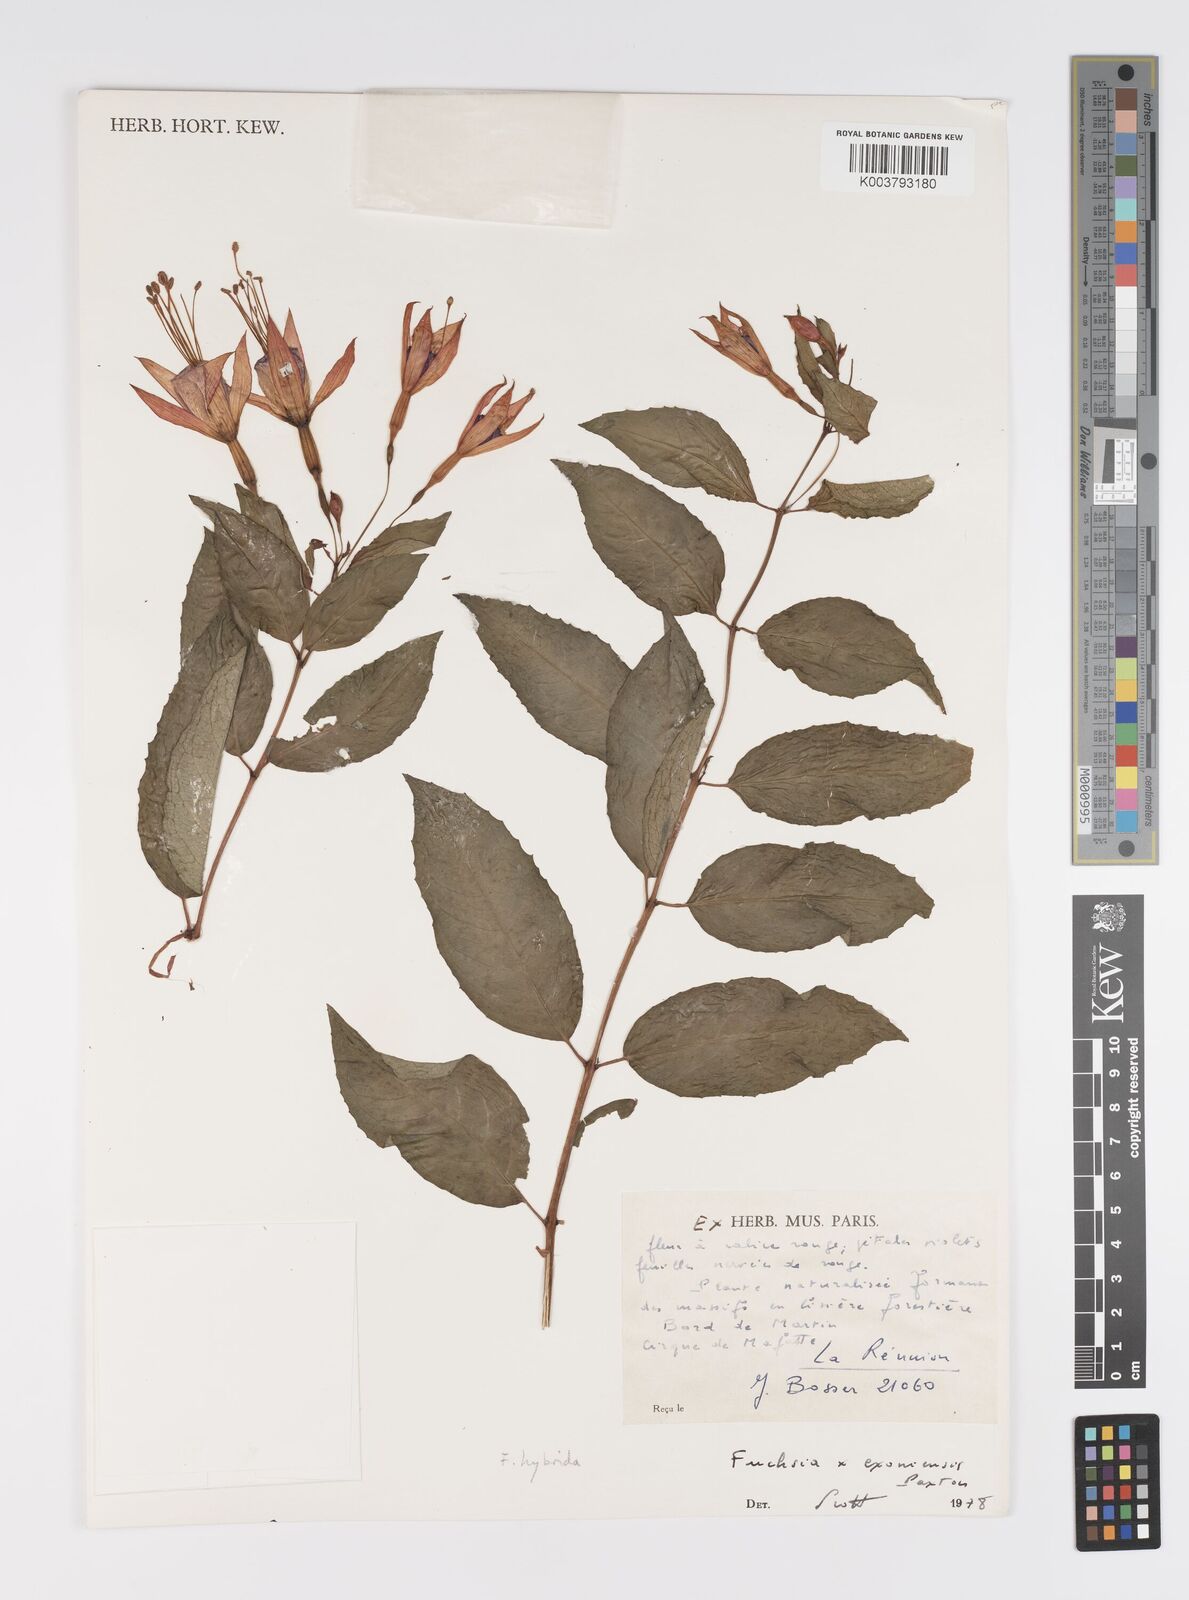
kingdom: Plantae
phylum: Tracheophyta
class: Magnoliopsida
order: Myrtales
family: Onagraceae
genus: Fuchsia
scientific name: Fuchsia
